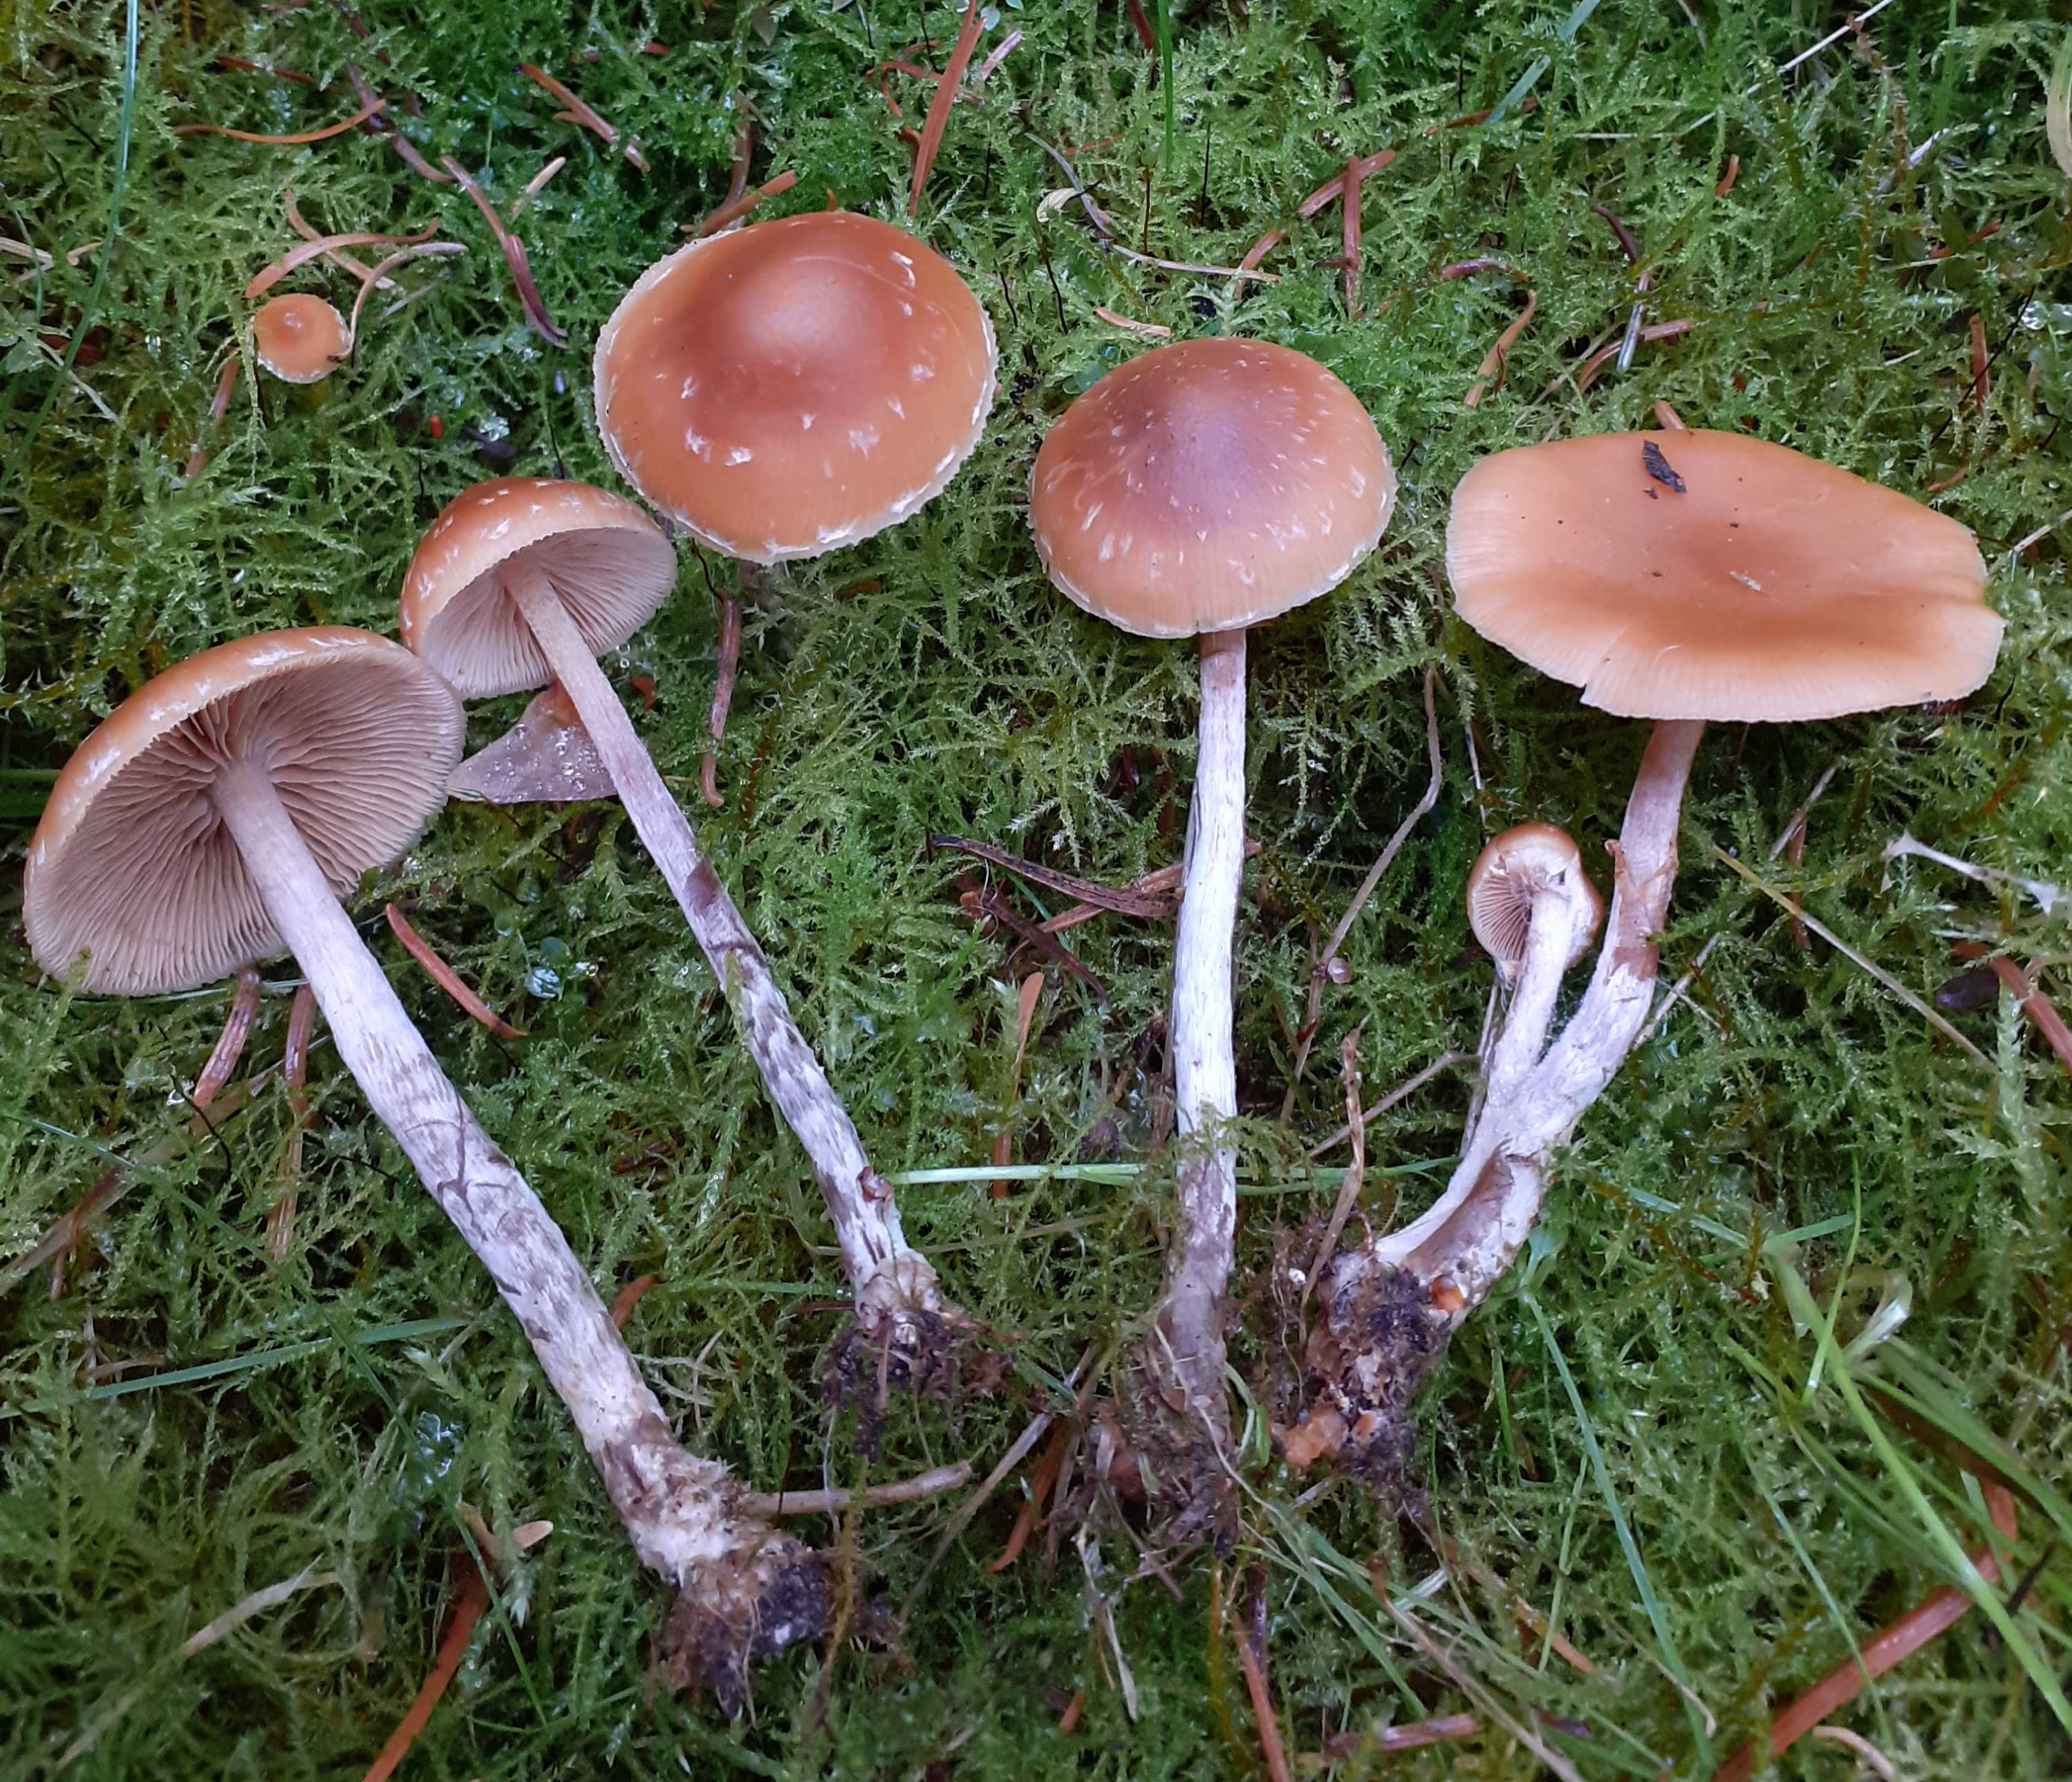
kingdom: Fungi
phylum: Basidiomycota
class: Agaricomycetes
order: Agaricales
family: Hymenogastraceae
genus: Galerina
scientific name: Galerina sideroides
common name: træflis-hjelmhat
